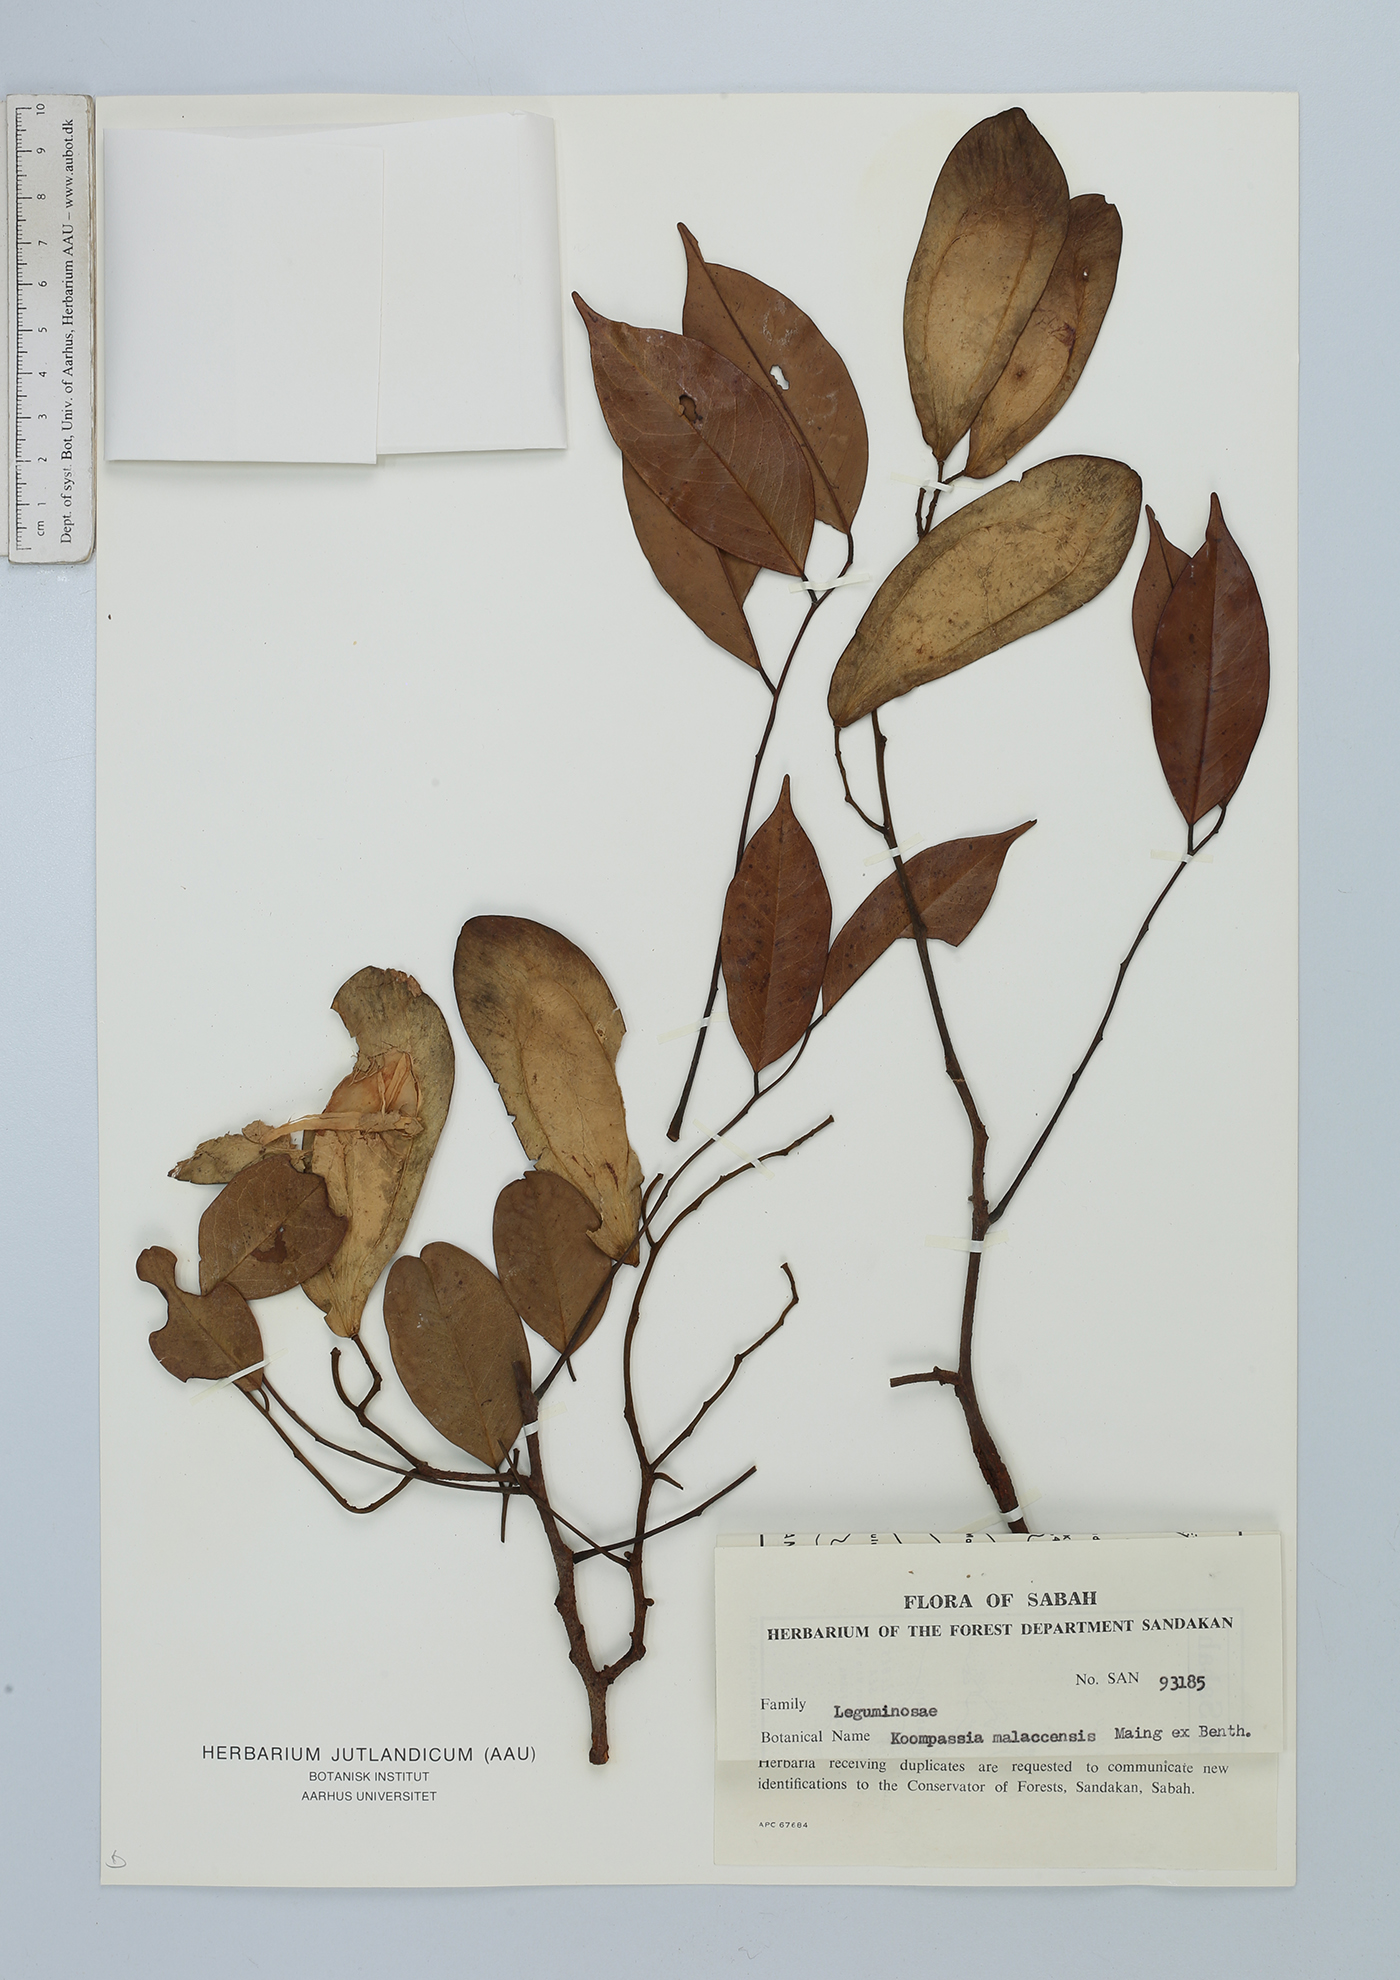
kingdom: Plantae
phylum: Tracheophyta
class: Magnoliopsida
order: Fabales
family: Fabaceae
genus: Koompassia
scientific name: Koompassia malaccensis
